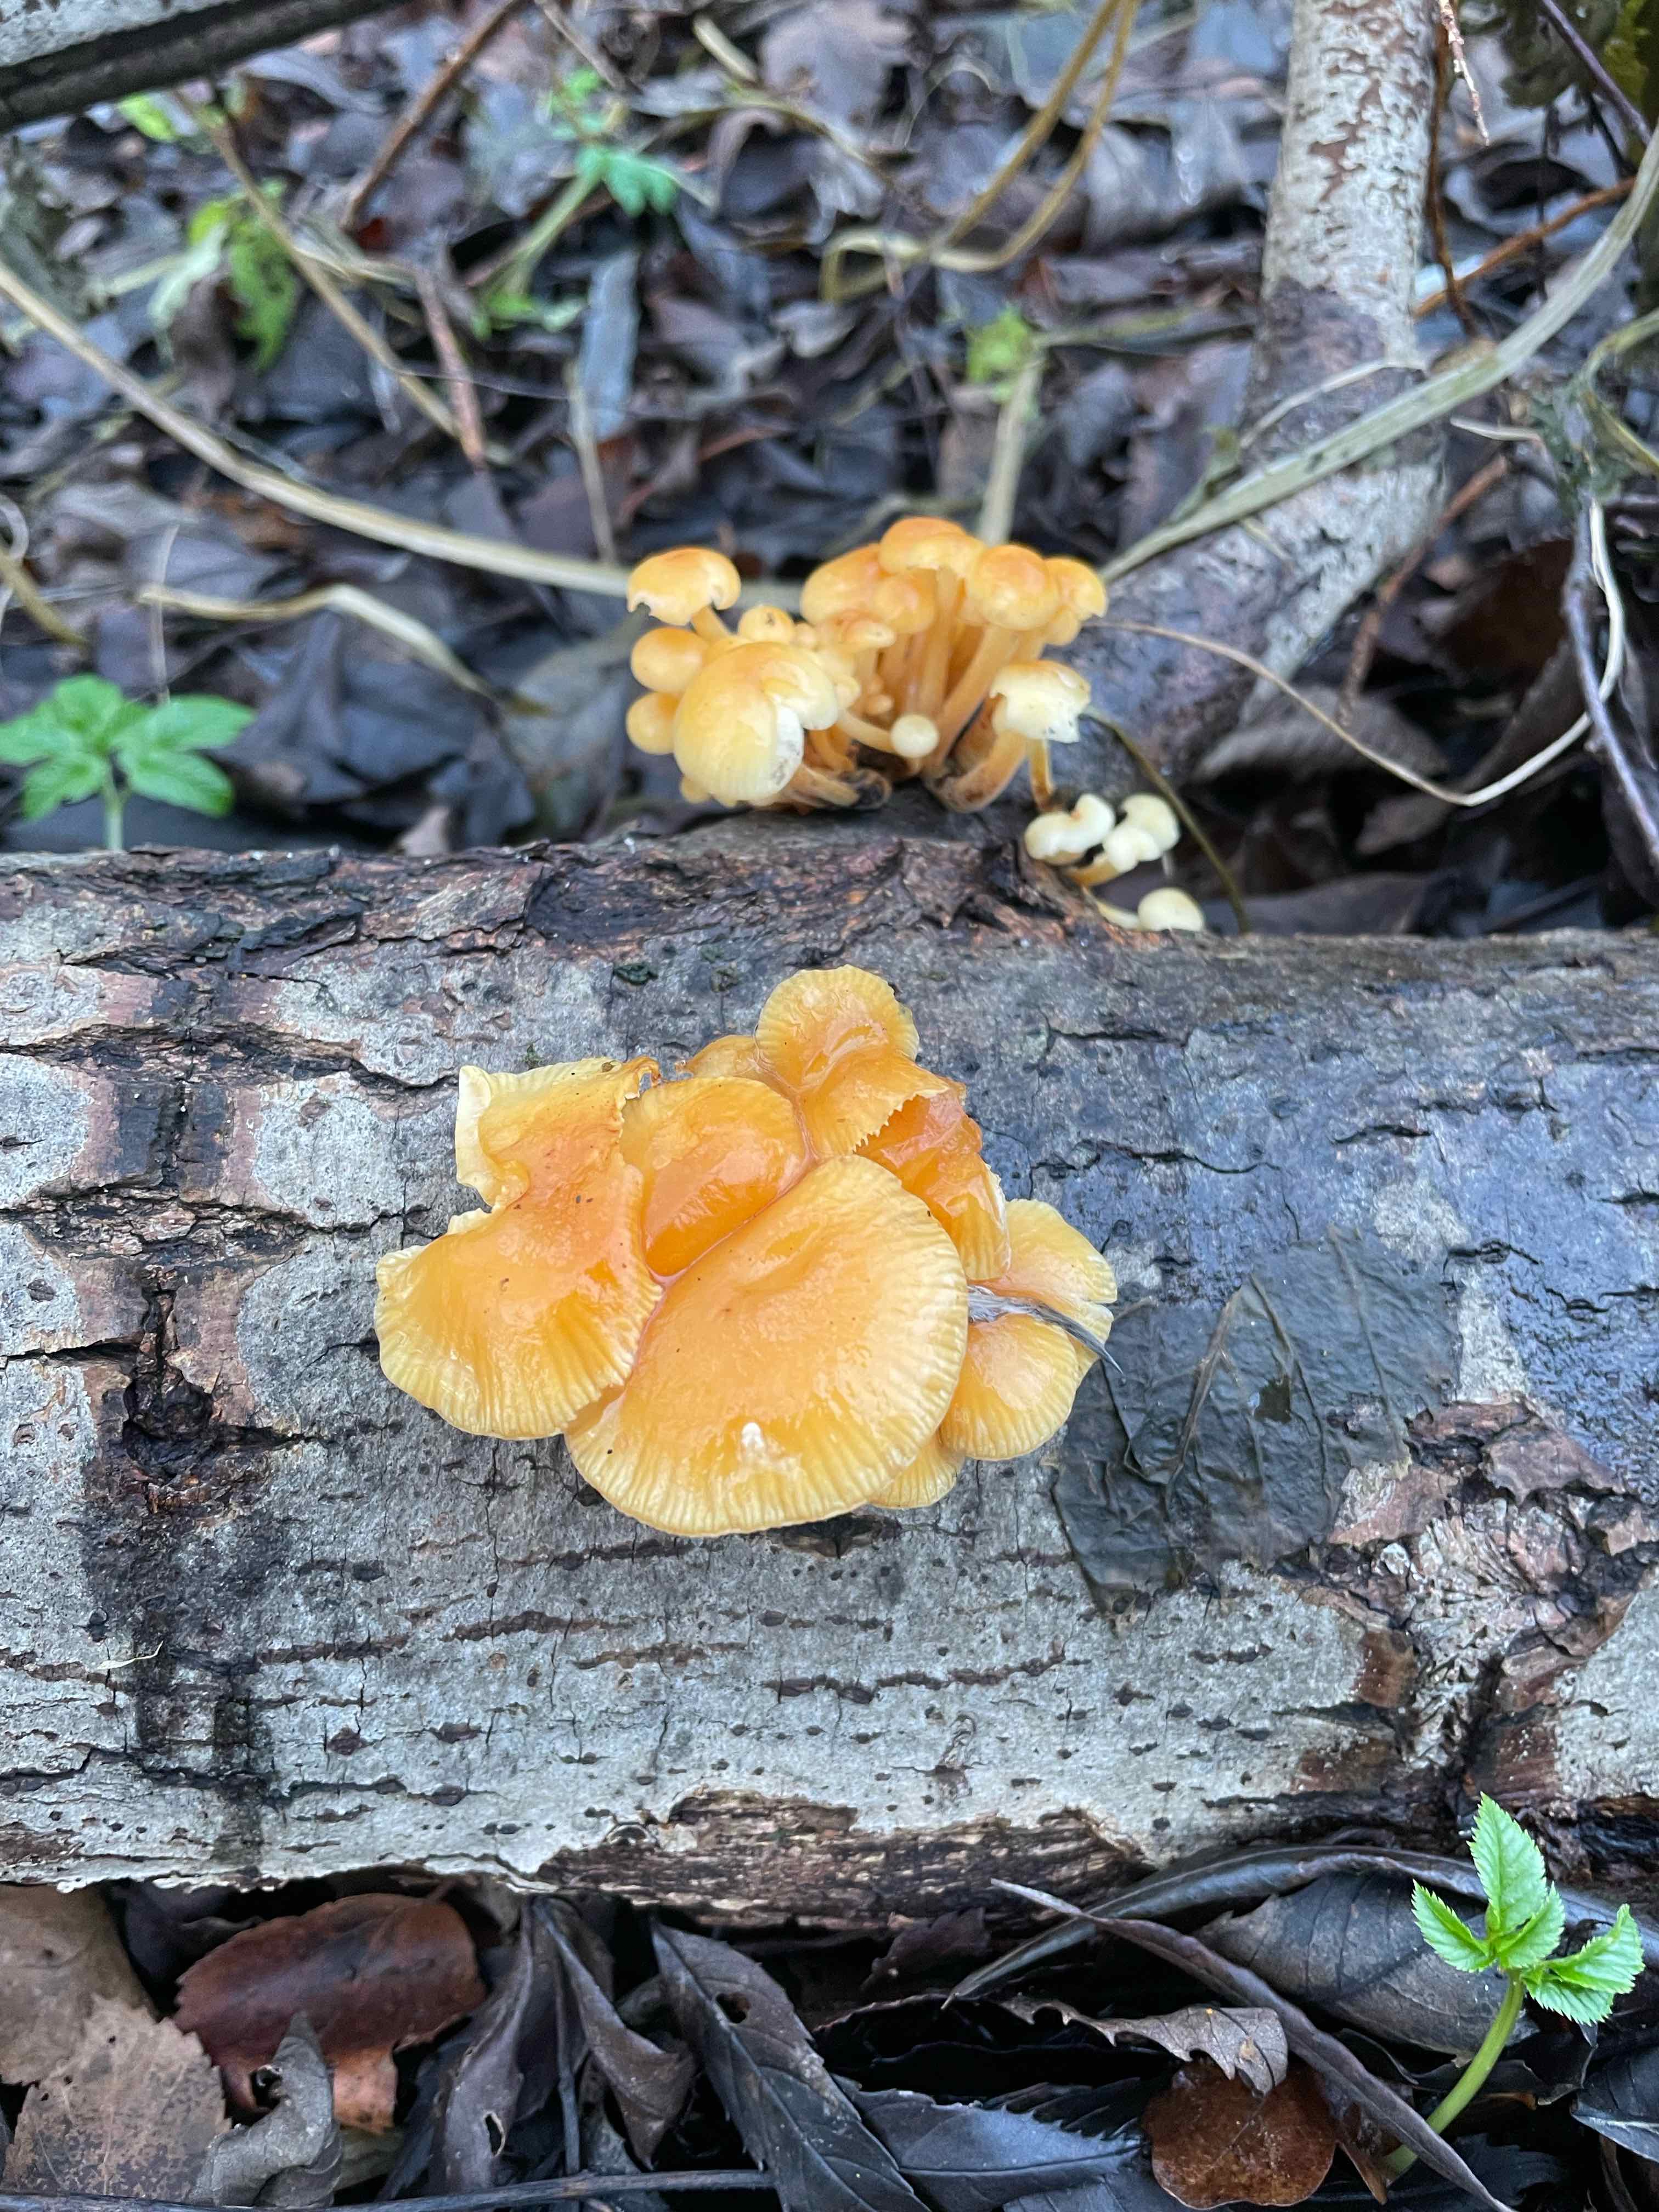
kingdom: Fungi
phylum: Basidiomycota
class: Agaricomycetes
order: Agaricales
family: Physalacriaceae
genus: Flammulina
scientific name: Flammulina
